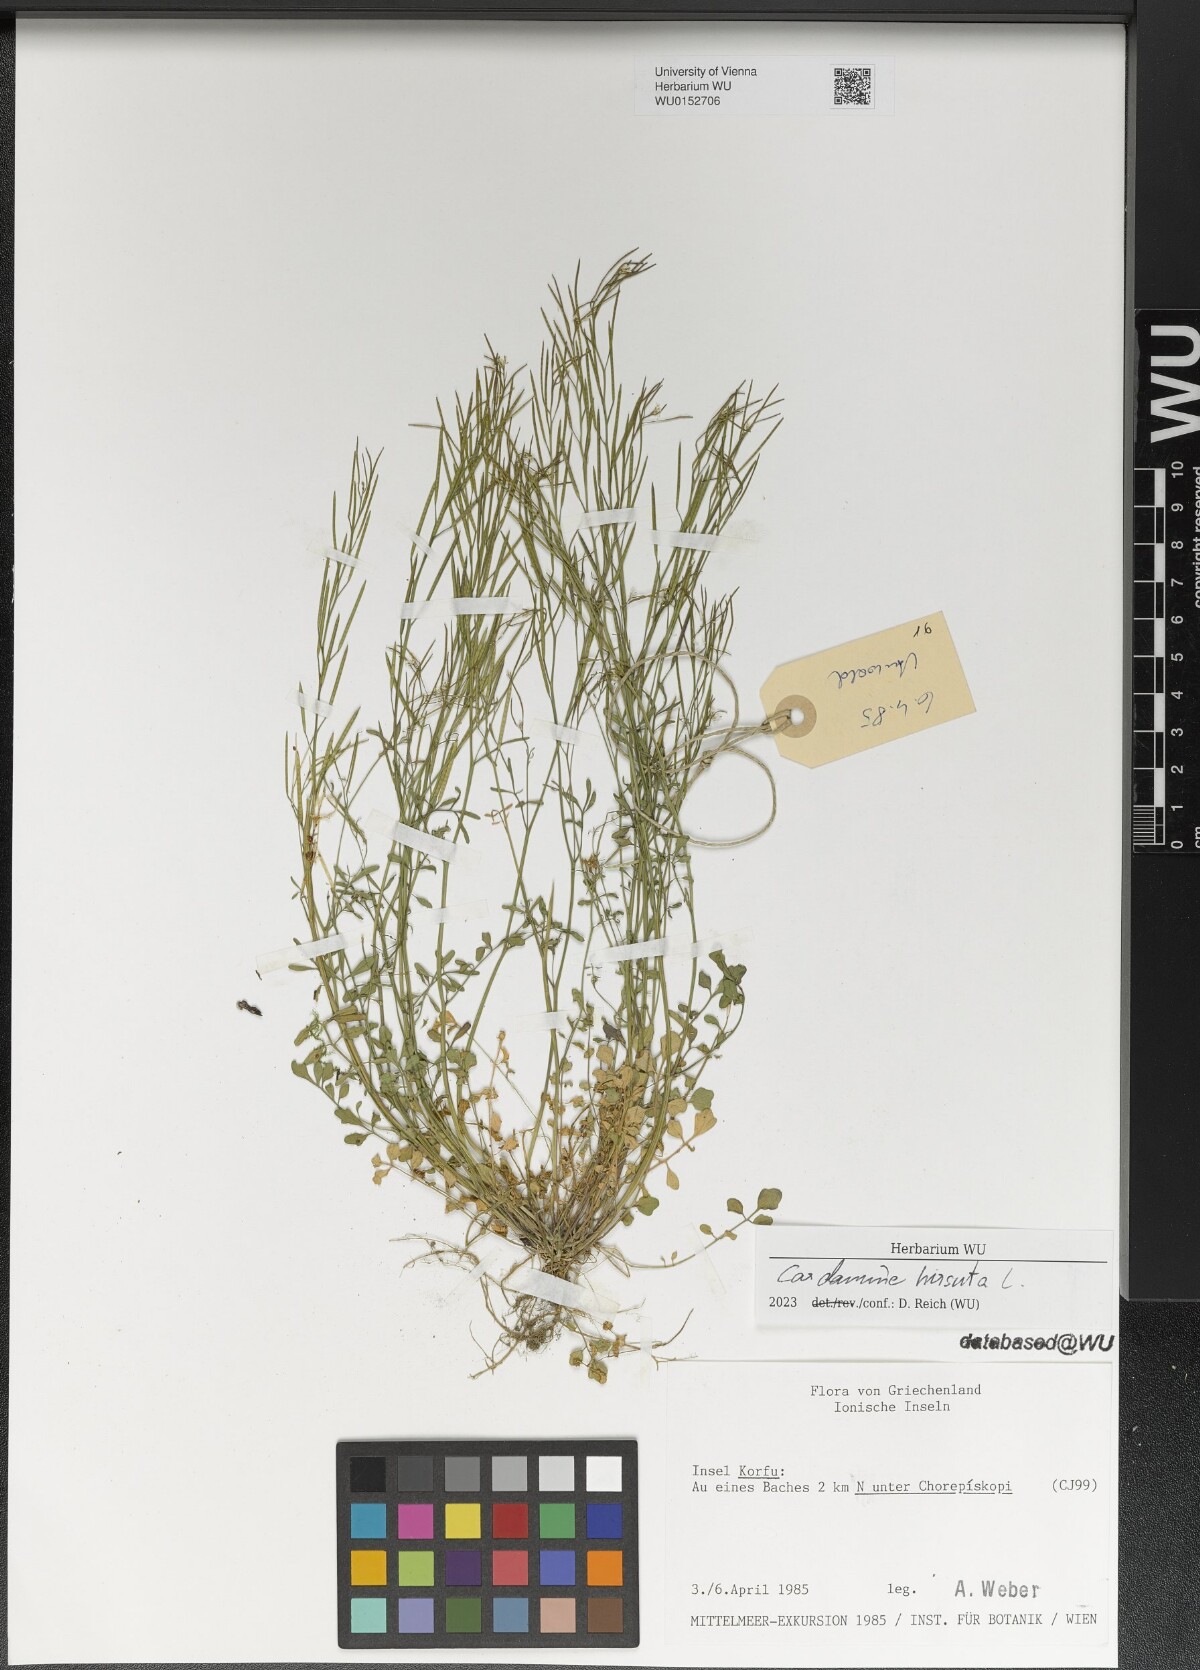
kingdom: Plantae
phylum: Tracheophyta
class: Magnoliopsida
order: Brassicales
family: Brassicaceae
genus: Cardamine
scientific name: Cardamine hirsuta
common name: Hairy bittercress
